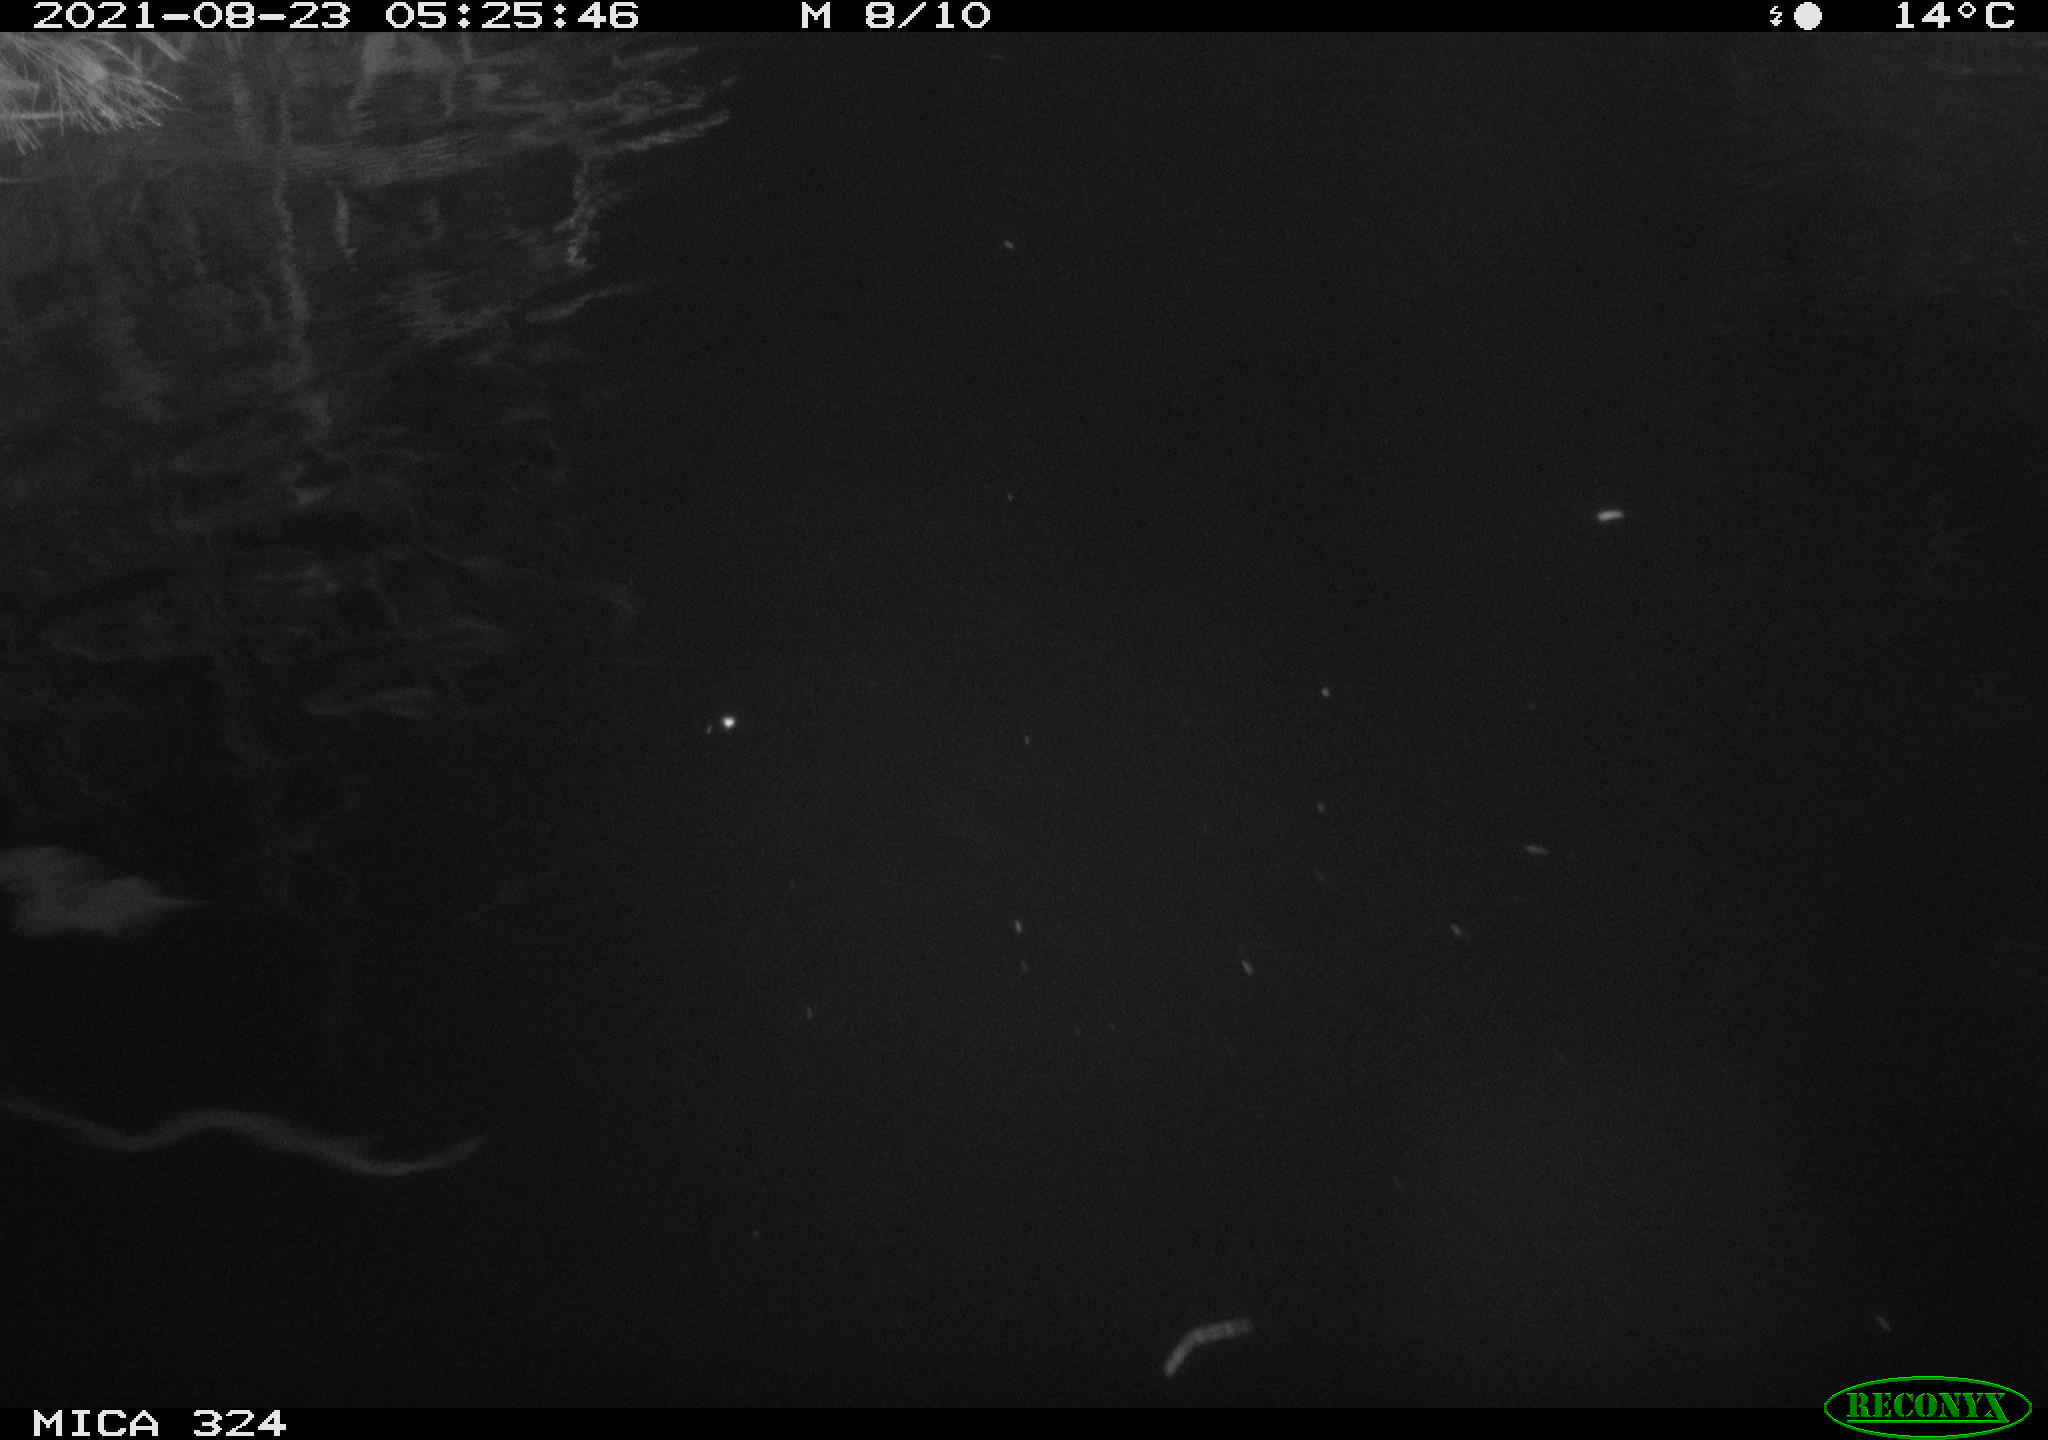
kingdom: Animalia
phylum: Chordata
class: Mammalia
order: Rodentia
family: Cricetidae
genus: Ondatra
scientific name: Ondatra zibethicus
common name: Muskrat
